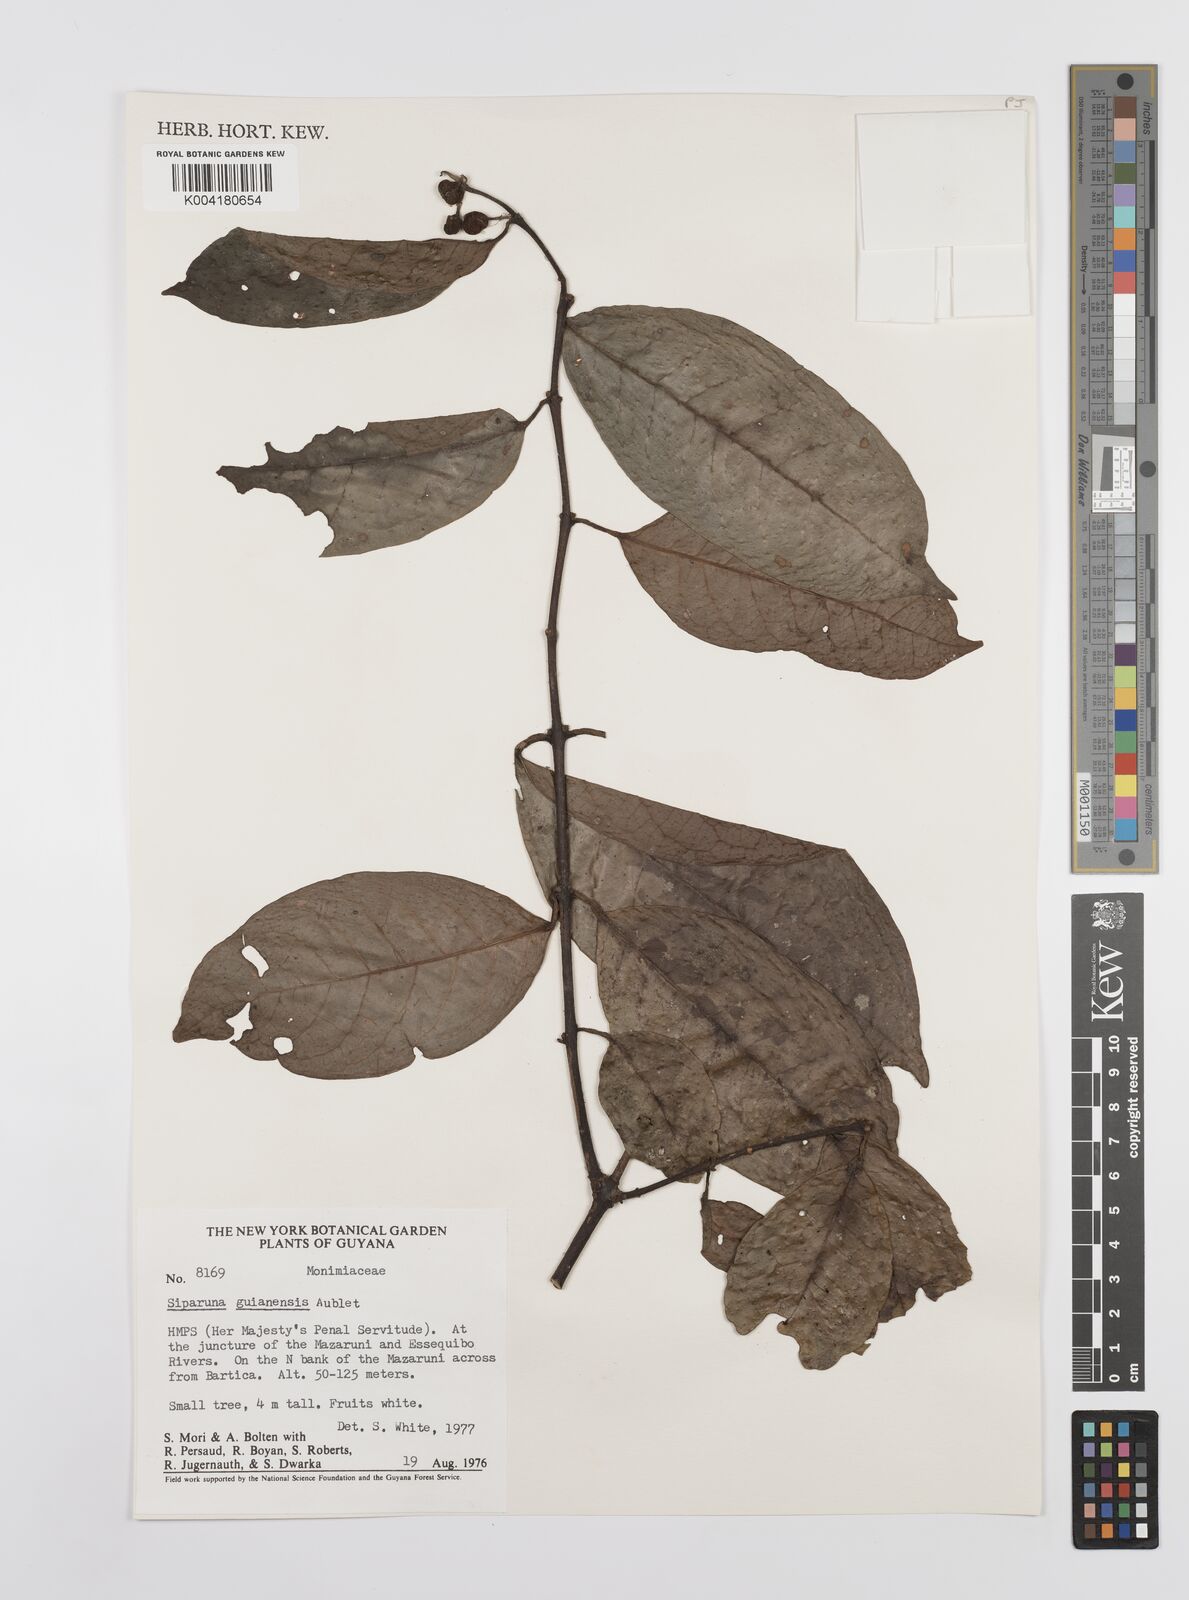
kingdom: Plantae
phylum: Tracheophyta
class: Magnoliopsida
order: Laurales
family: Siparunaceae
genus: Siparuna
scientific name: Siparuna guianensis
